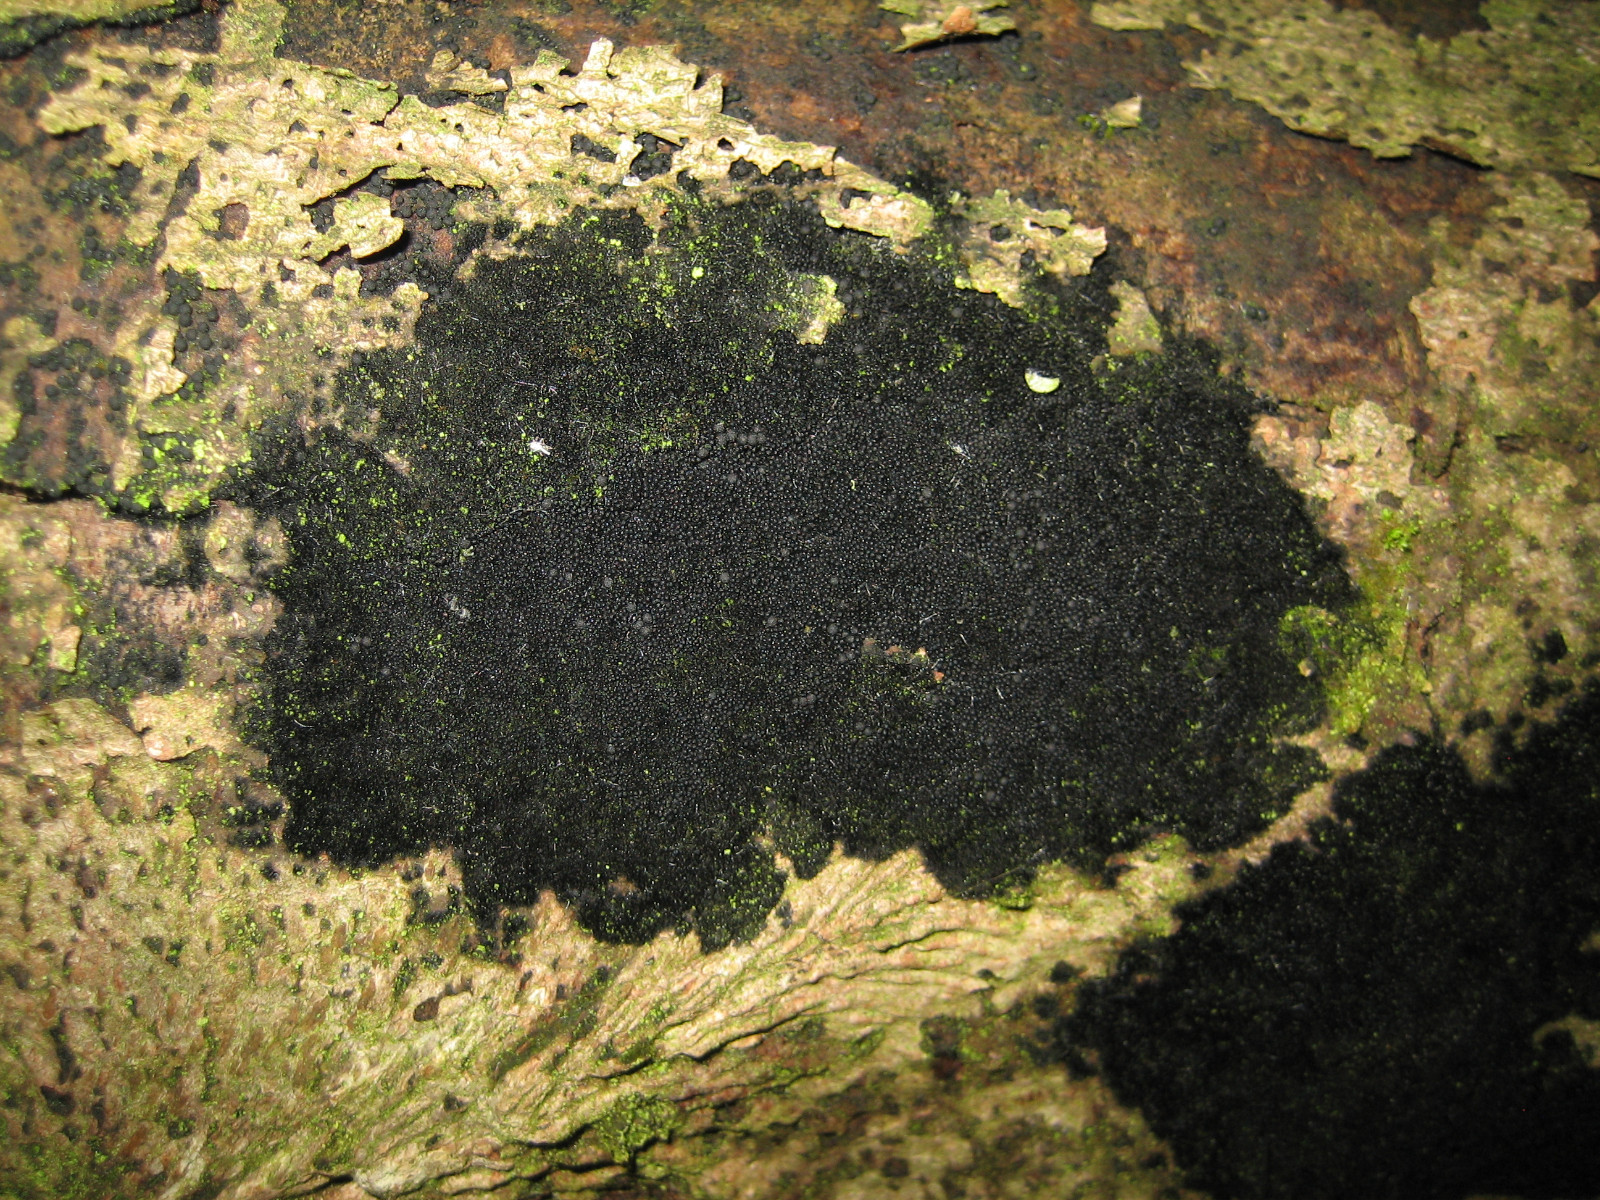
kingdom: Fungi
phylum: Ascomycota
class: Sordariomycetes
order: Coronophorales
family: Chaetosphaerellaceae
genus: Chaetosphaerella
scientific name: Chaetosphaerella phaeostroma
